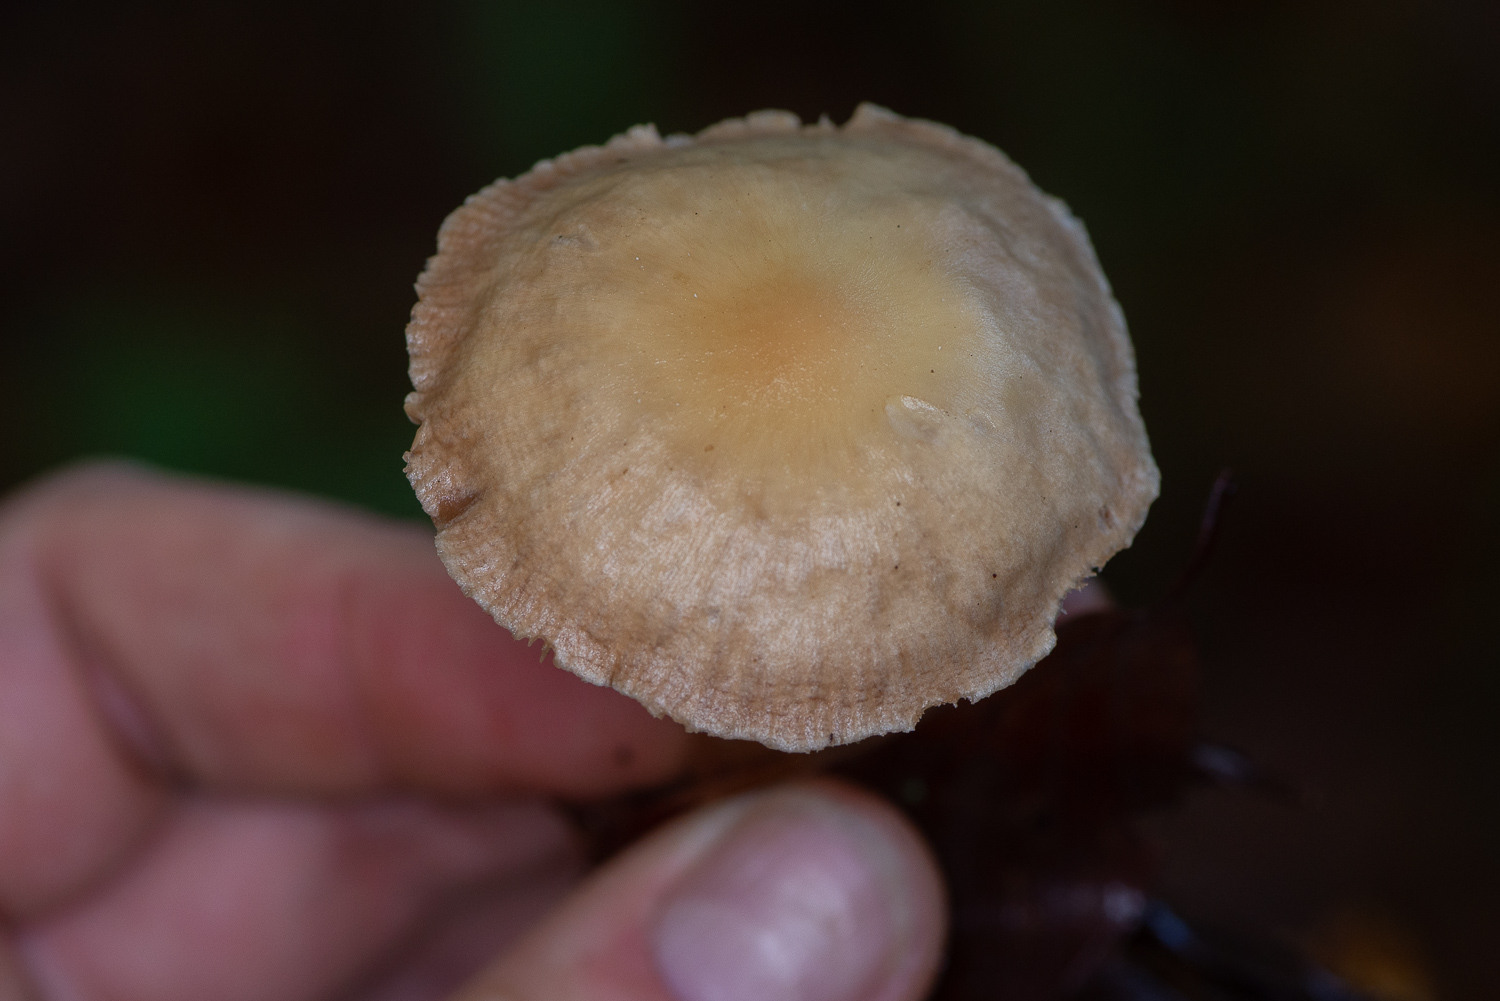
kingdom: Fungi
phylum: Basidiomycota
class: Agaricomycetes
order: Agaricales
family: Omphalotaceae
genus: Collybiopsis
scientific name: Collybiopsis peronata
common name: bestøvlet fladhat
